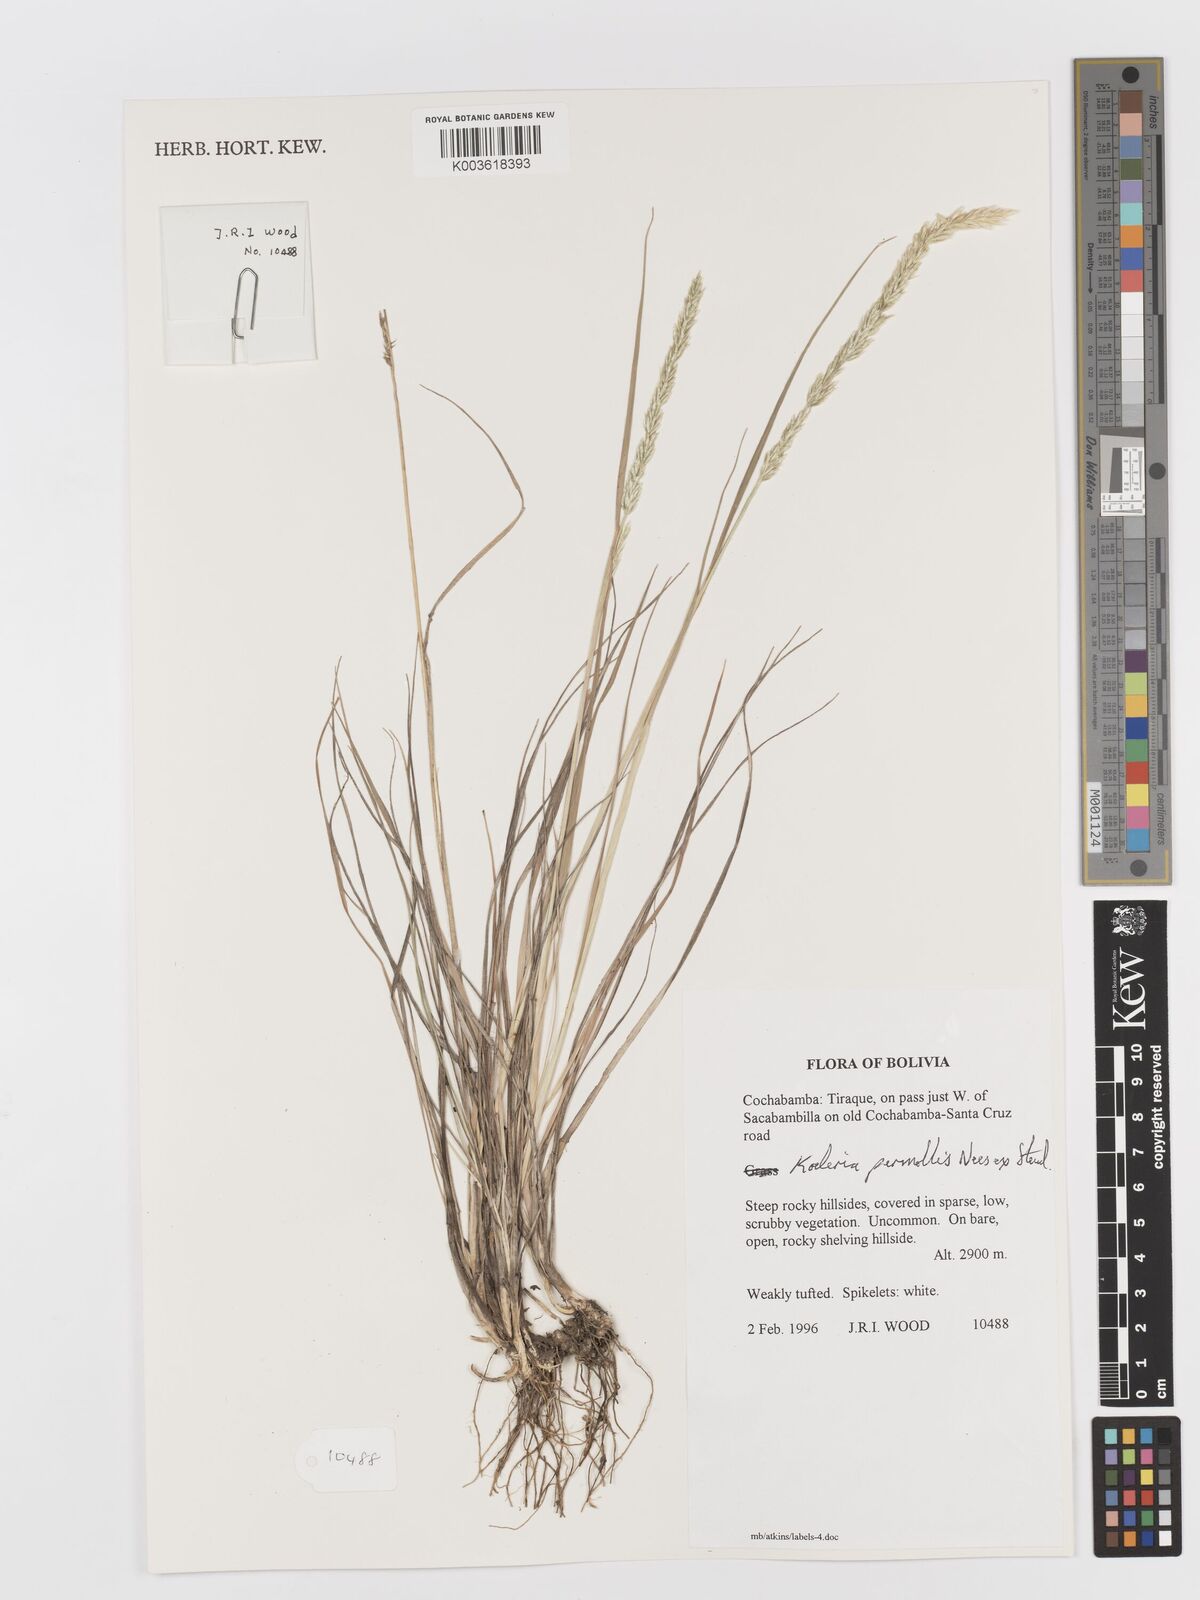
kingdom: Plantae
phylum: Tracheophyta
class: Liliopsida
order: Poales
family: Poaceae
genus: Koeleria
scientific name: Koeleria permollis
